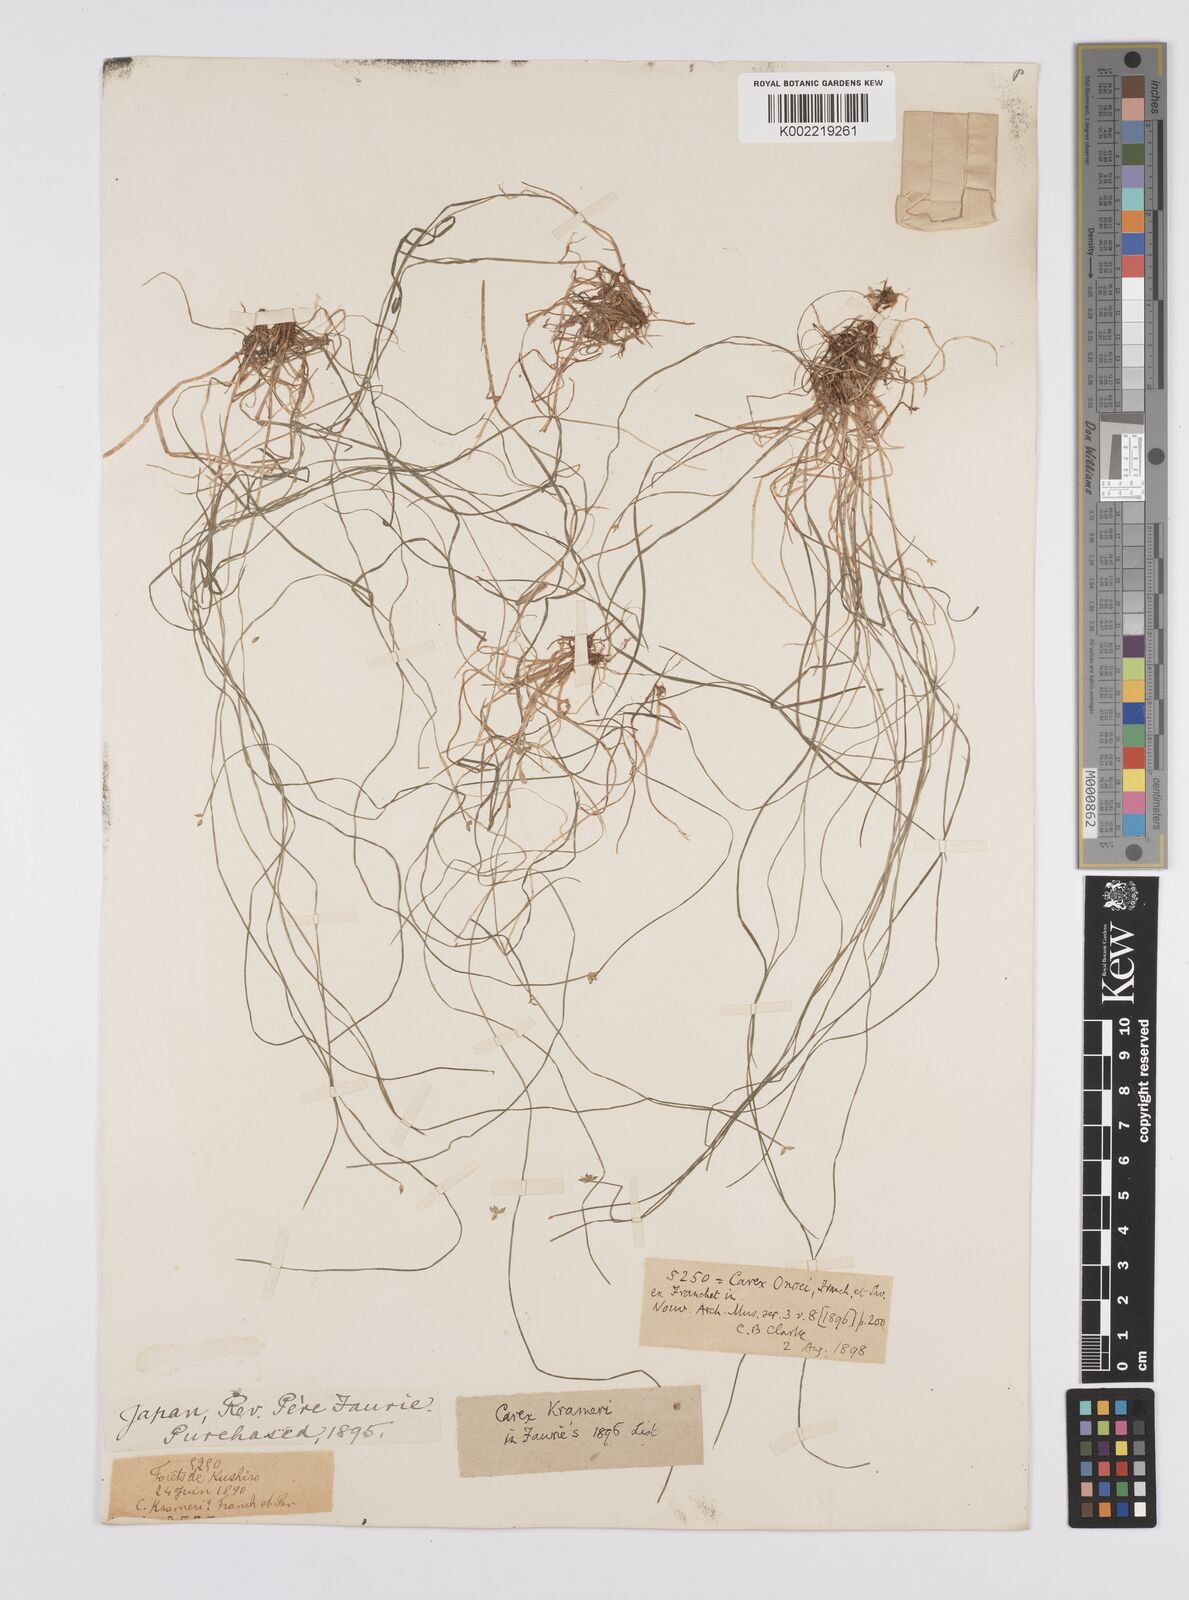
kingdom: Plantae
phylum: Tracheophyta
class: Liliopsida
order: Poales
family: Cyperaceae
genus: Carex
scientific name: Carex onoei
